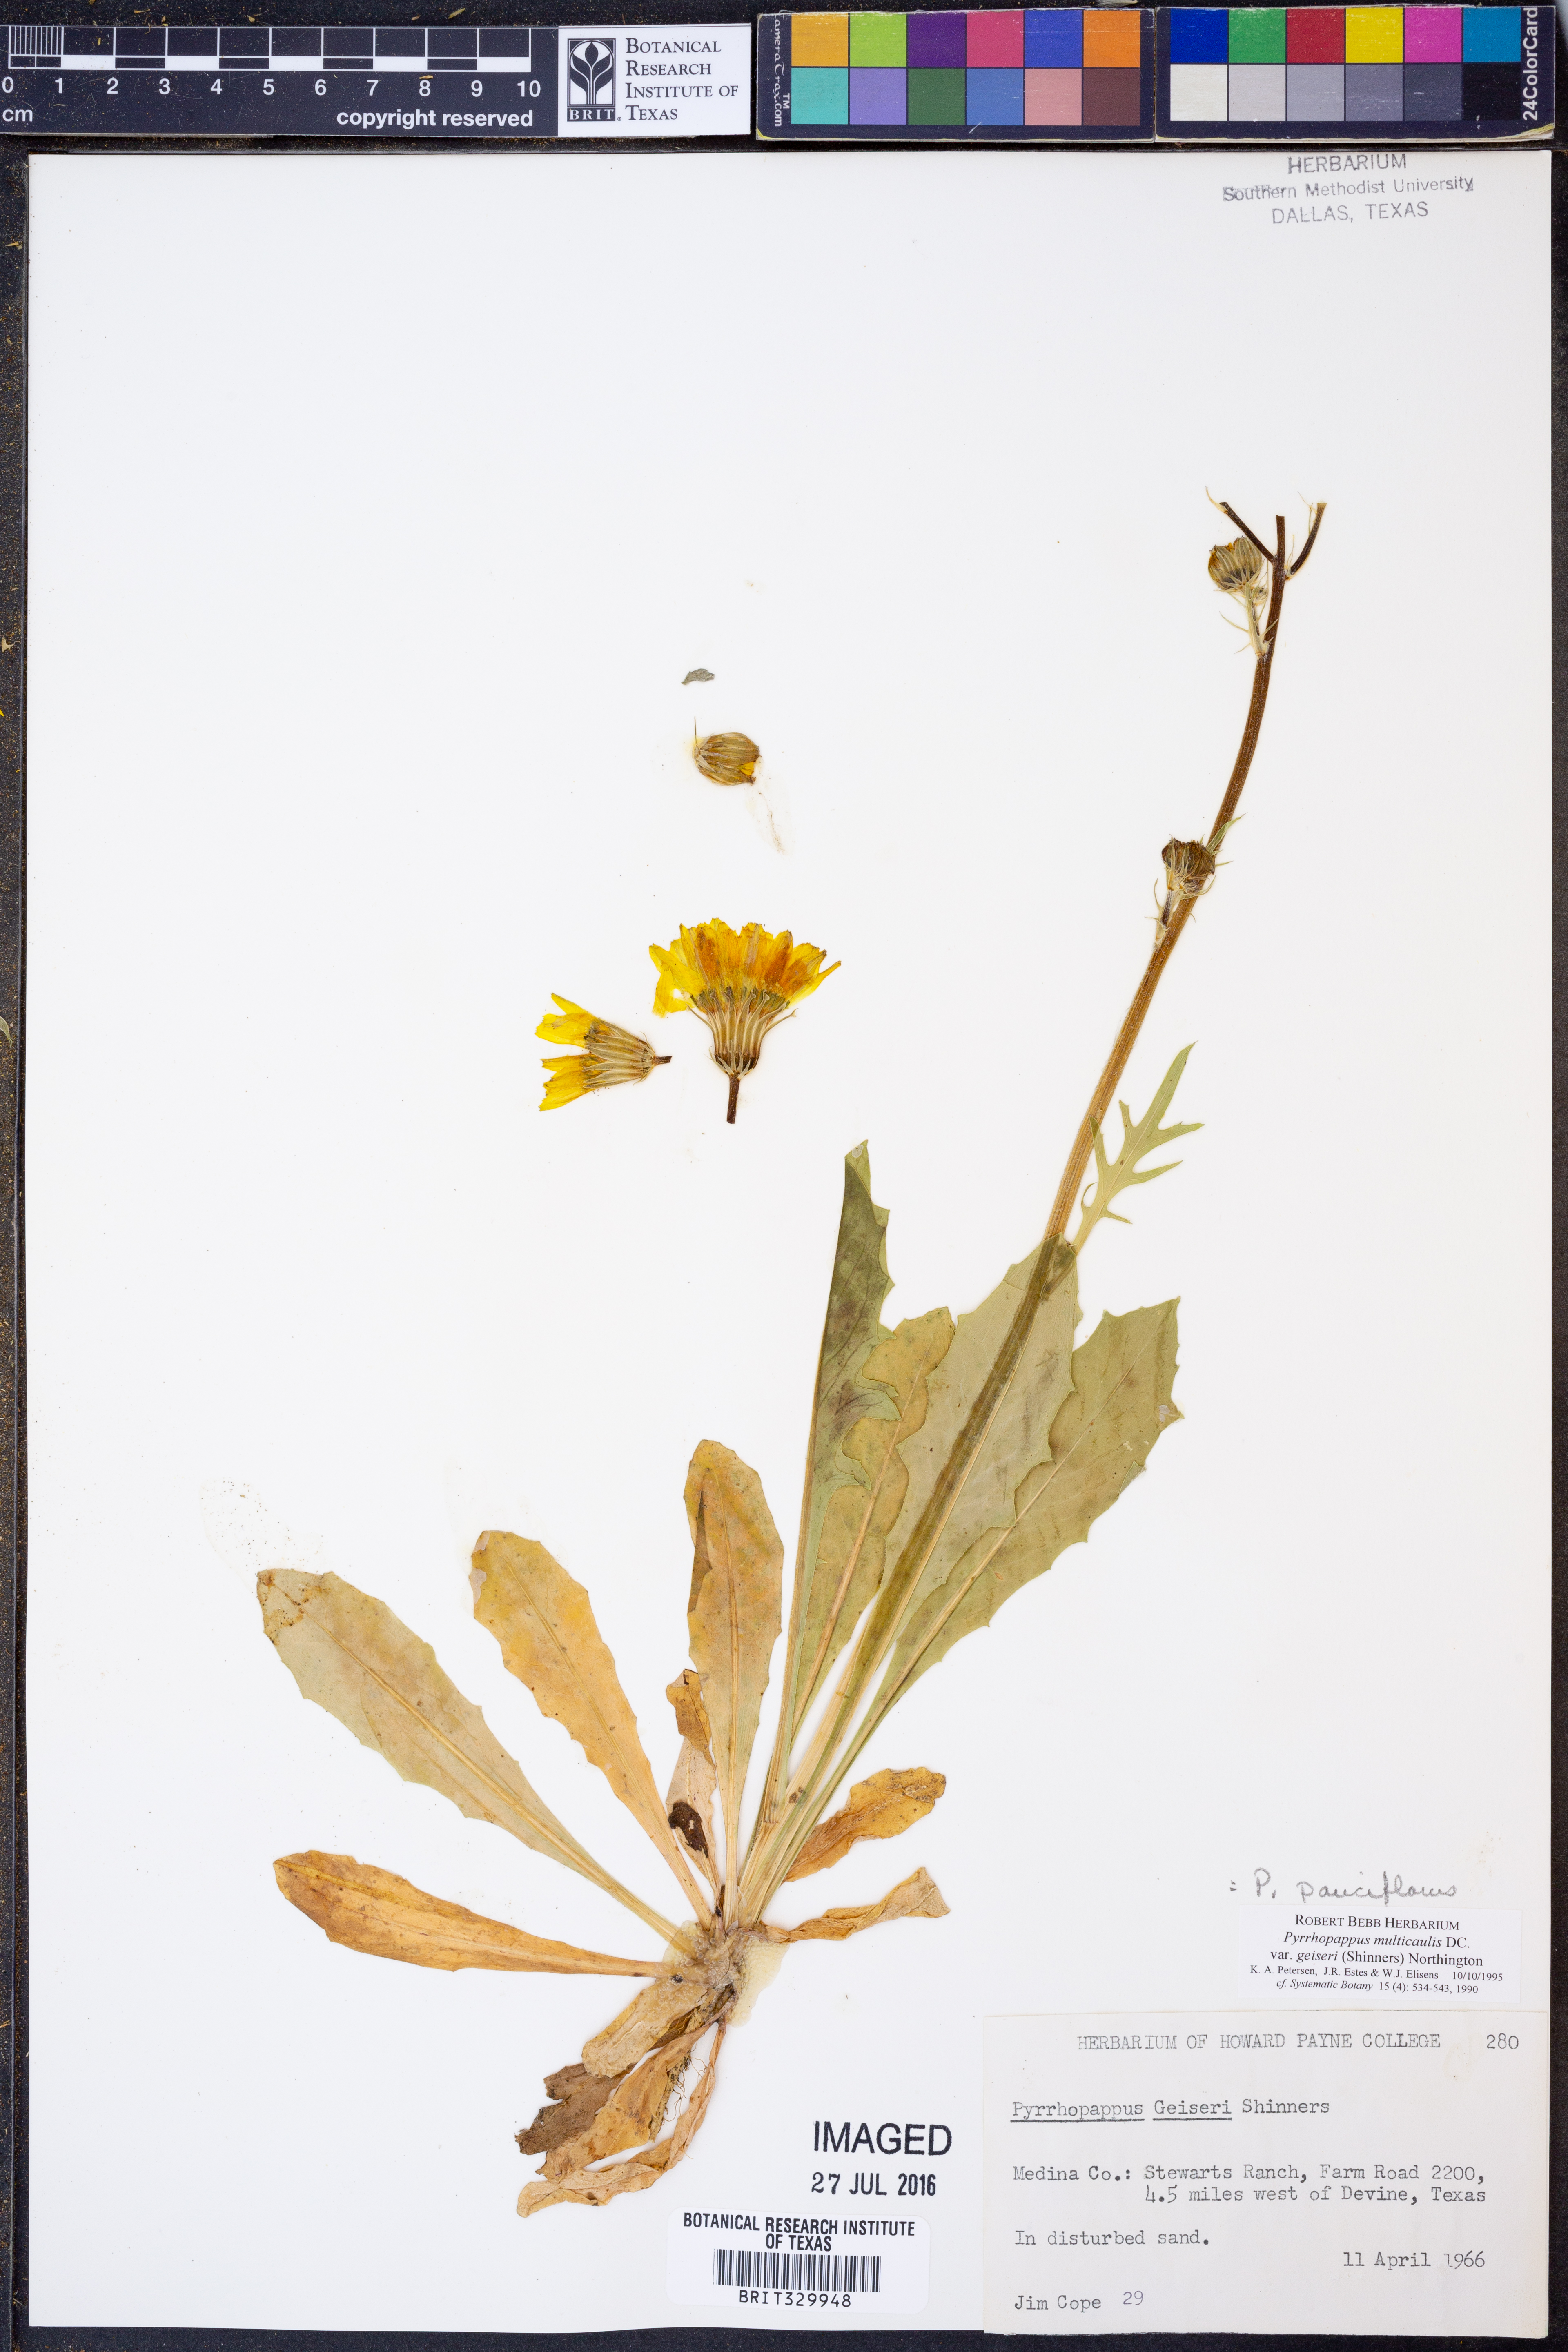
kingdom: Plantae
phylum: Tracheophyta
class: Magnoliopsida
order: Asterales
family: Asteraceae
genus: Pyrrhopappus
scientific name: Pyrrhopappus pauciflorus
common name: Texas false dandelion
